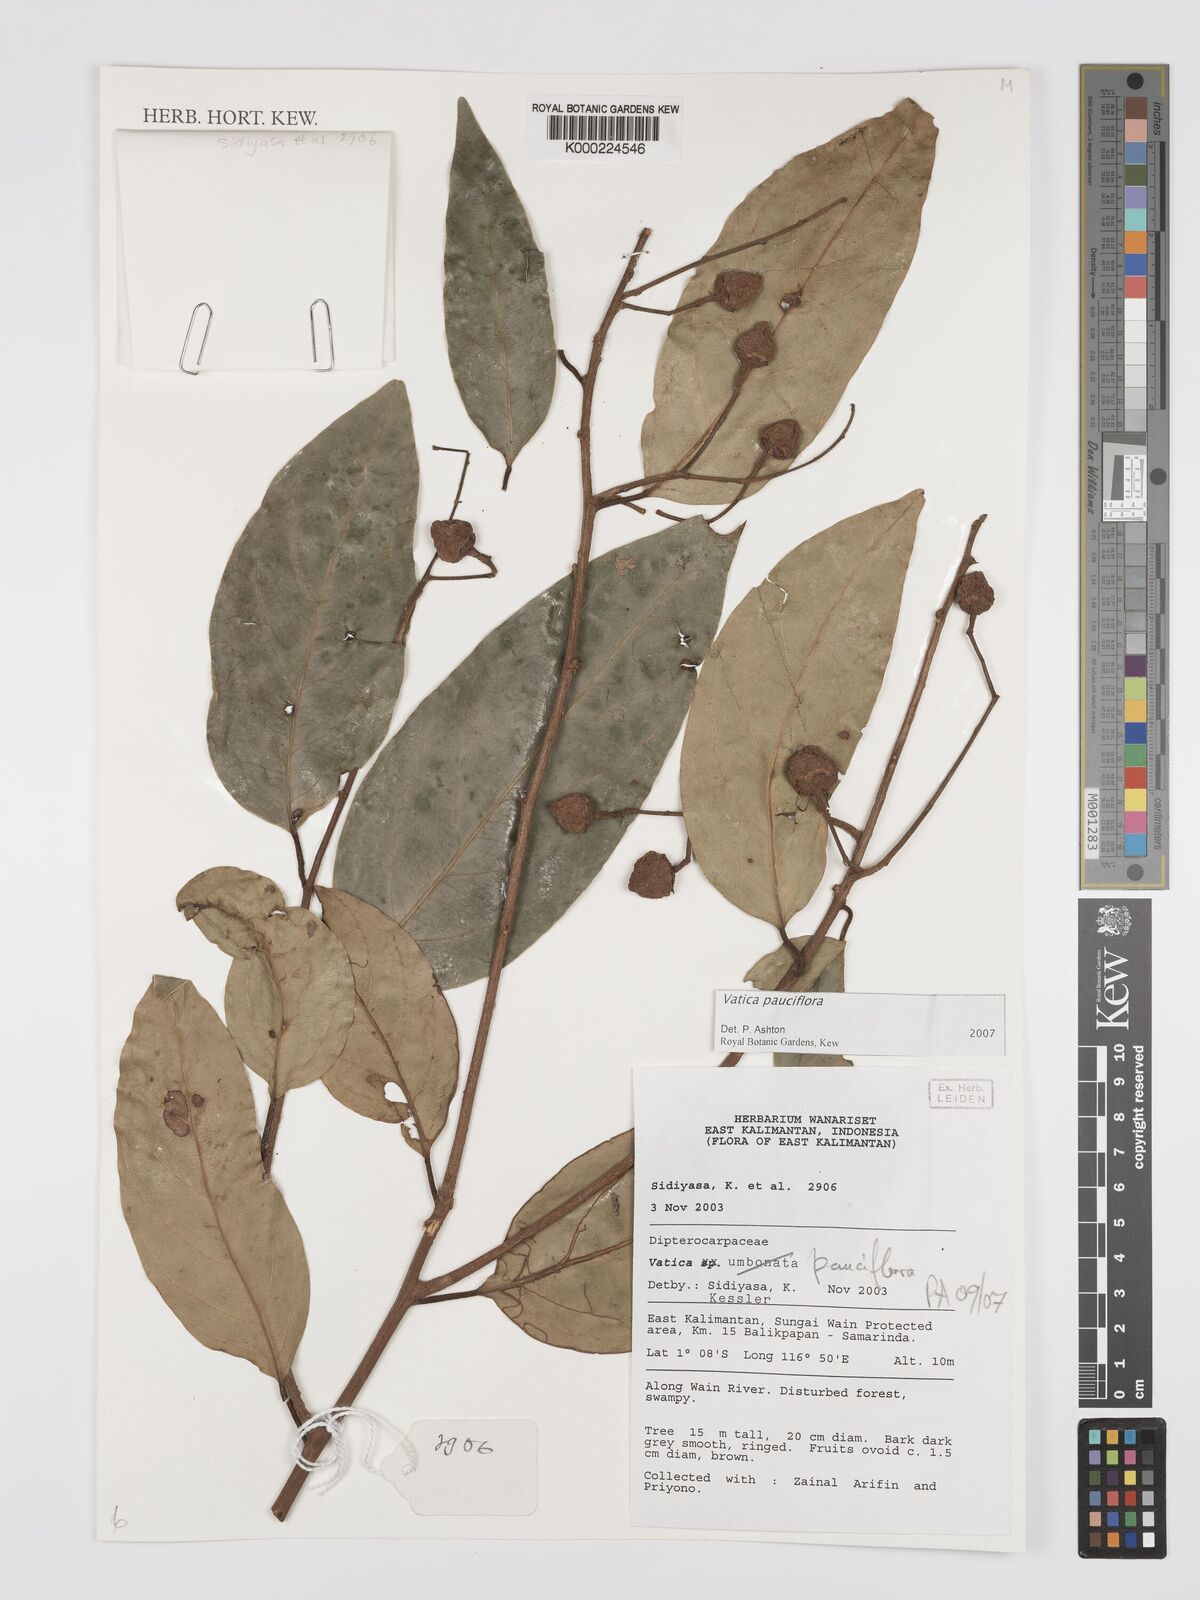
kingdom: Plantae
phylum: Tracheophyta
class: Magnoliopsida
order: Malvales
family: Dipterocarpaceae
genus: Vatica
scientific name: Vatica pauciflora
